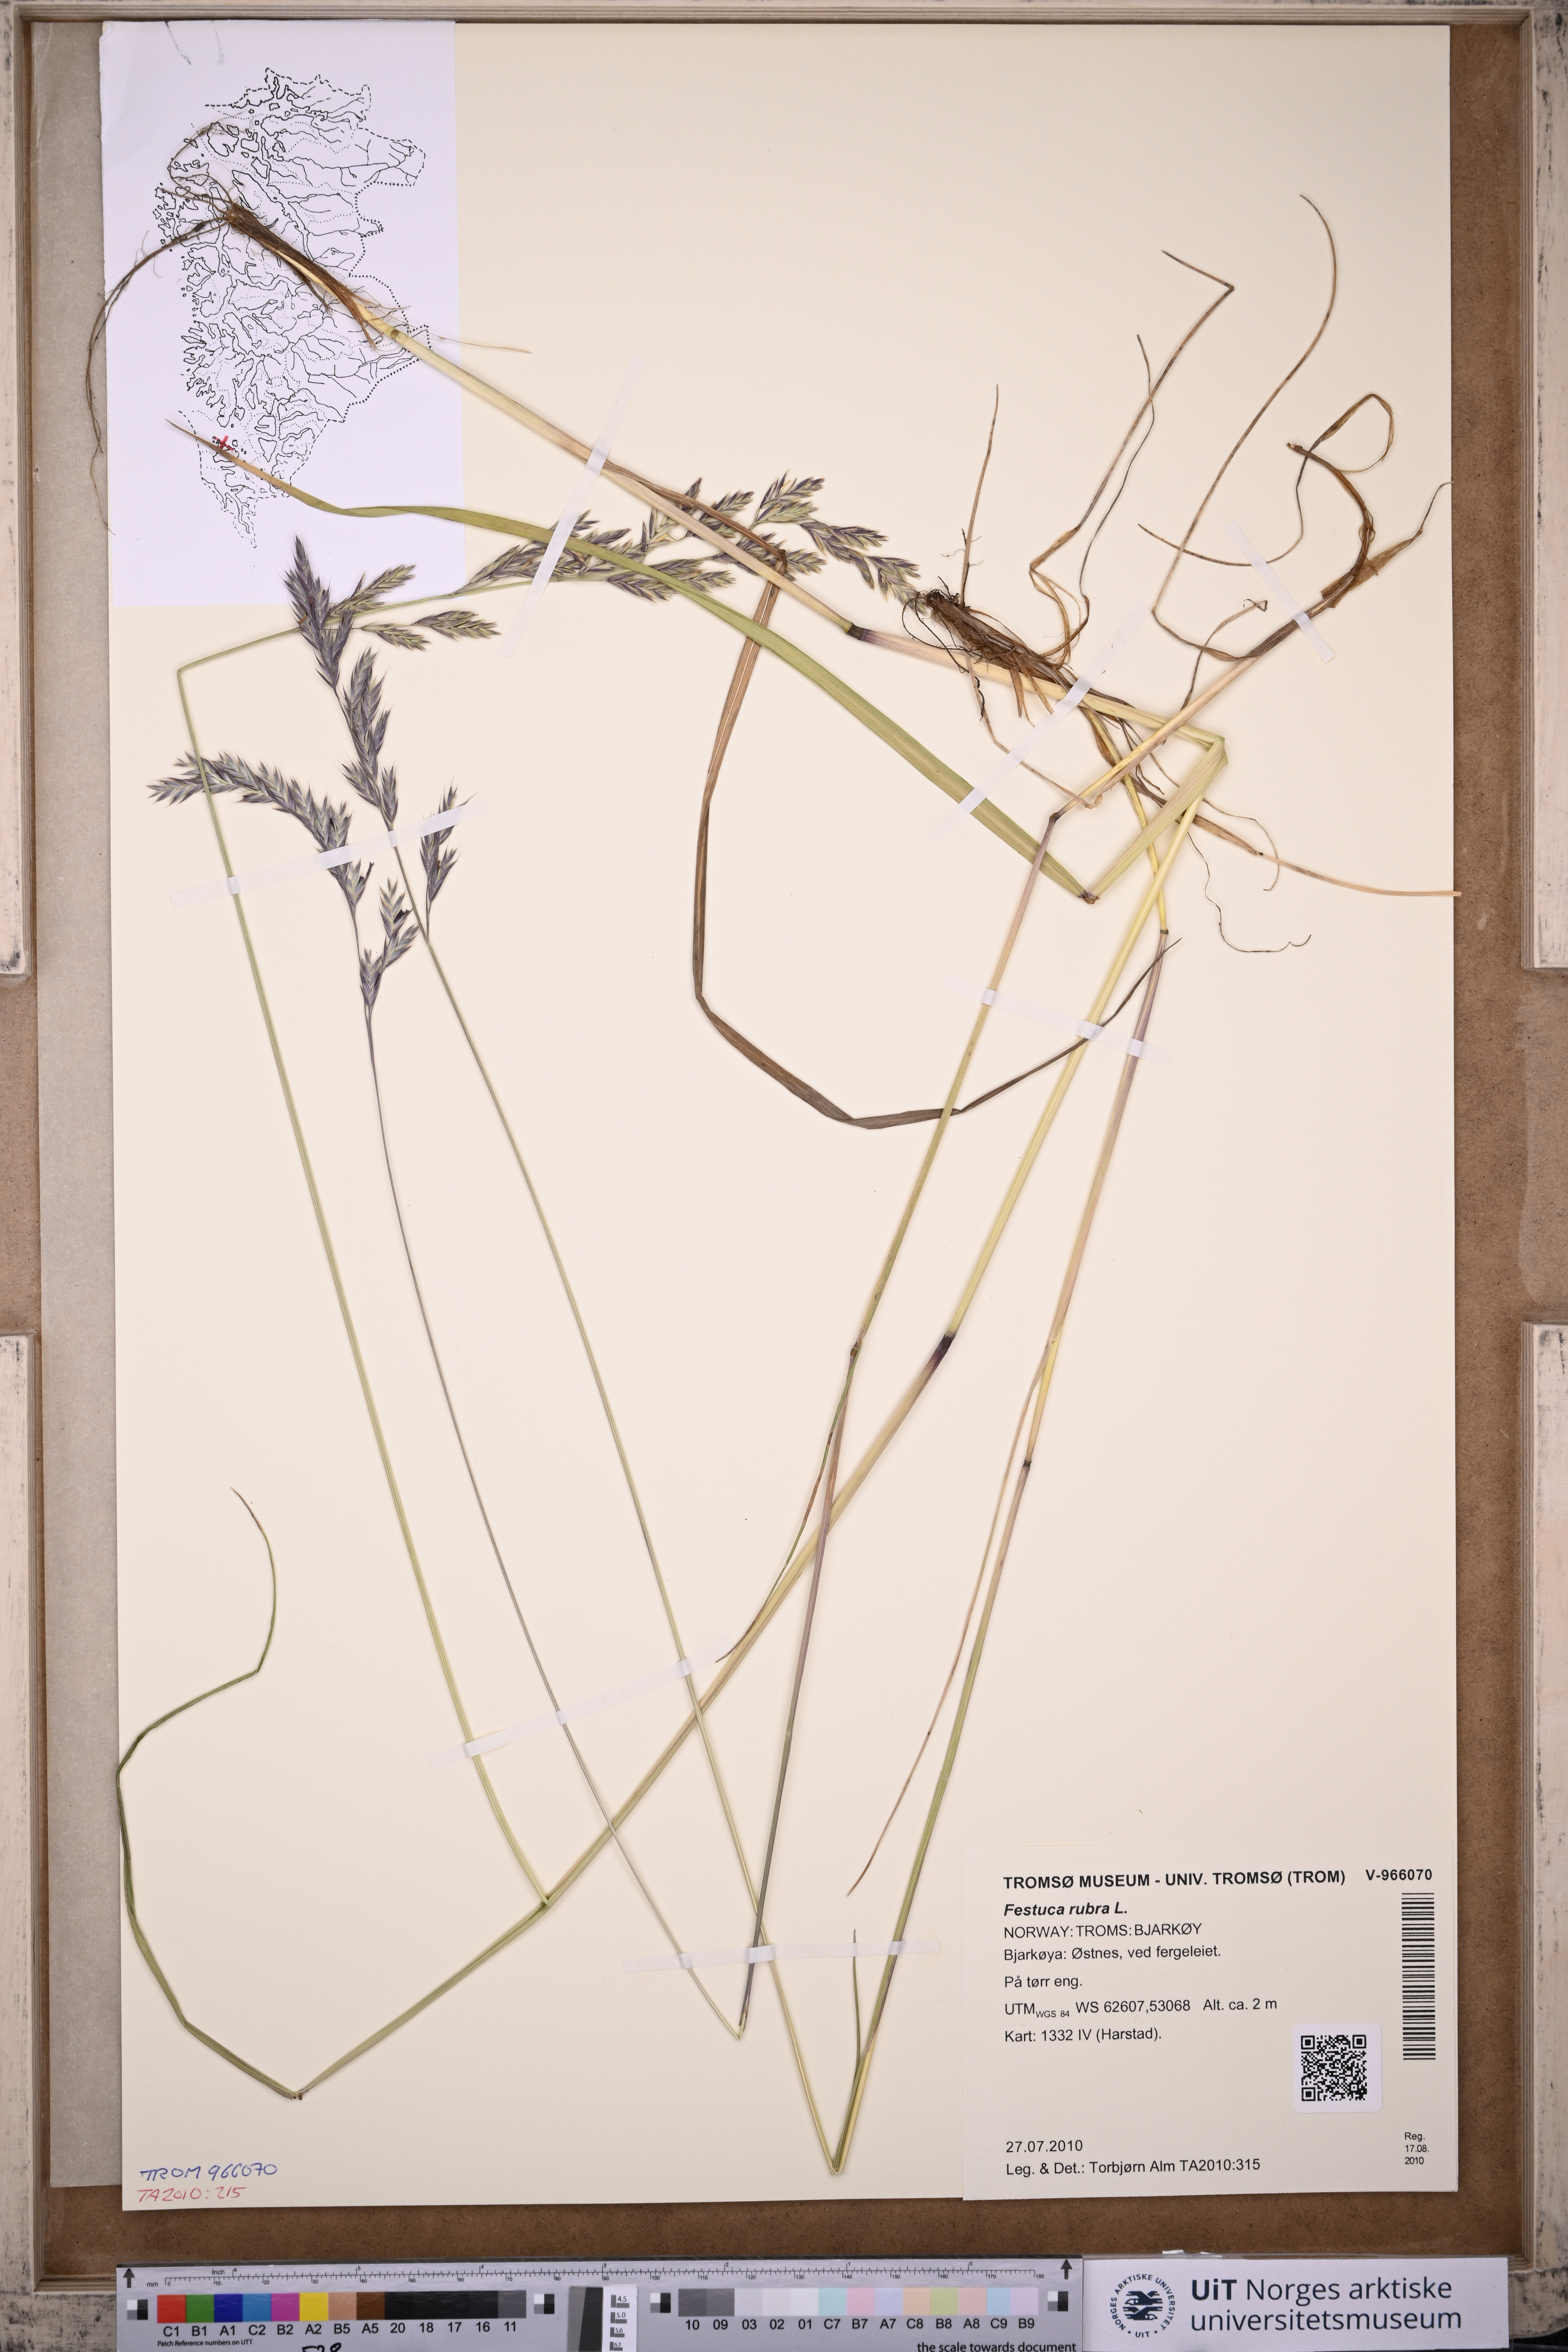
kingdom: Plantae
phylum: Tracheophyta
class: Liliopsida
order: Poales
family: Poaceae
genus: Festuca
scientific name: Festuca rubra
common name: Red fescue
